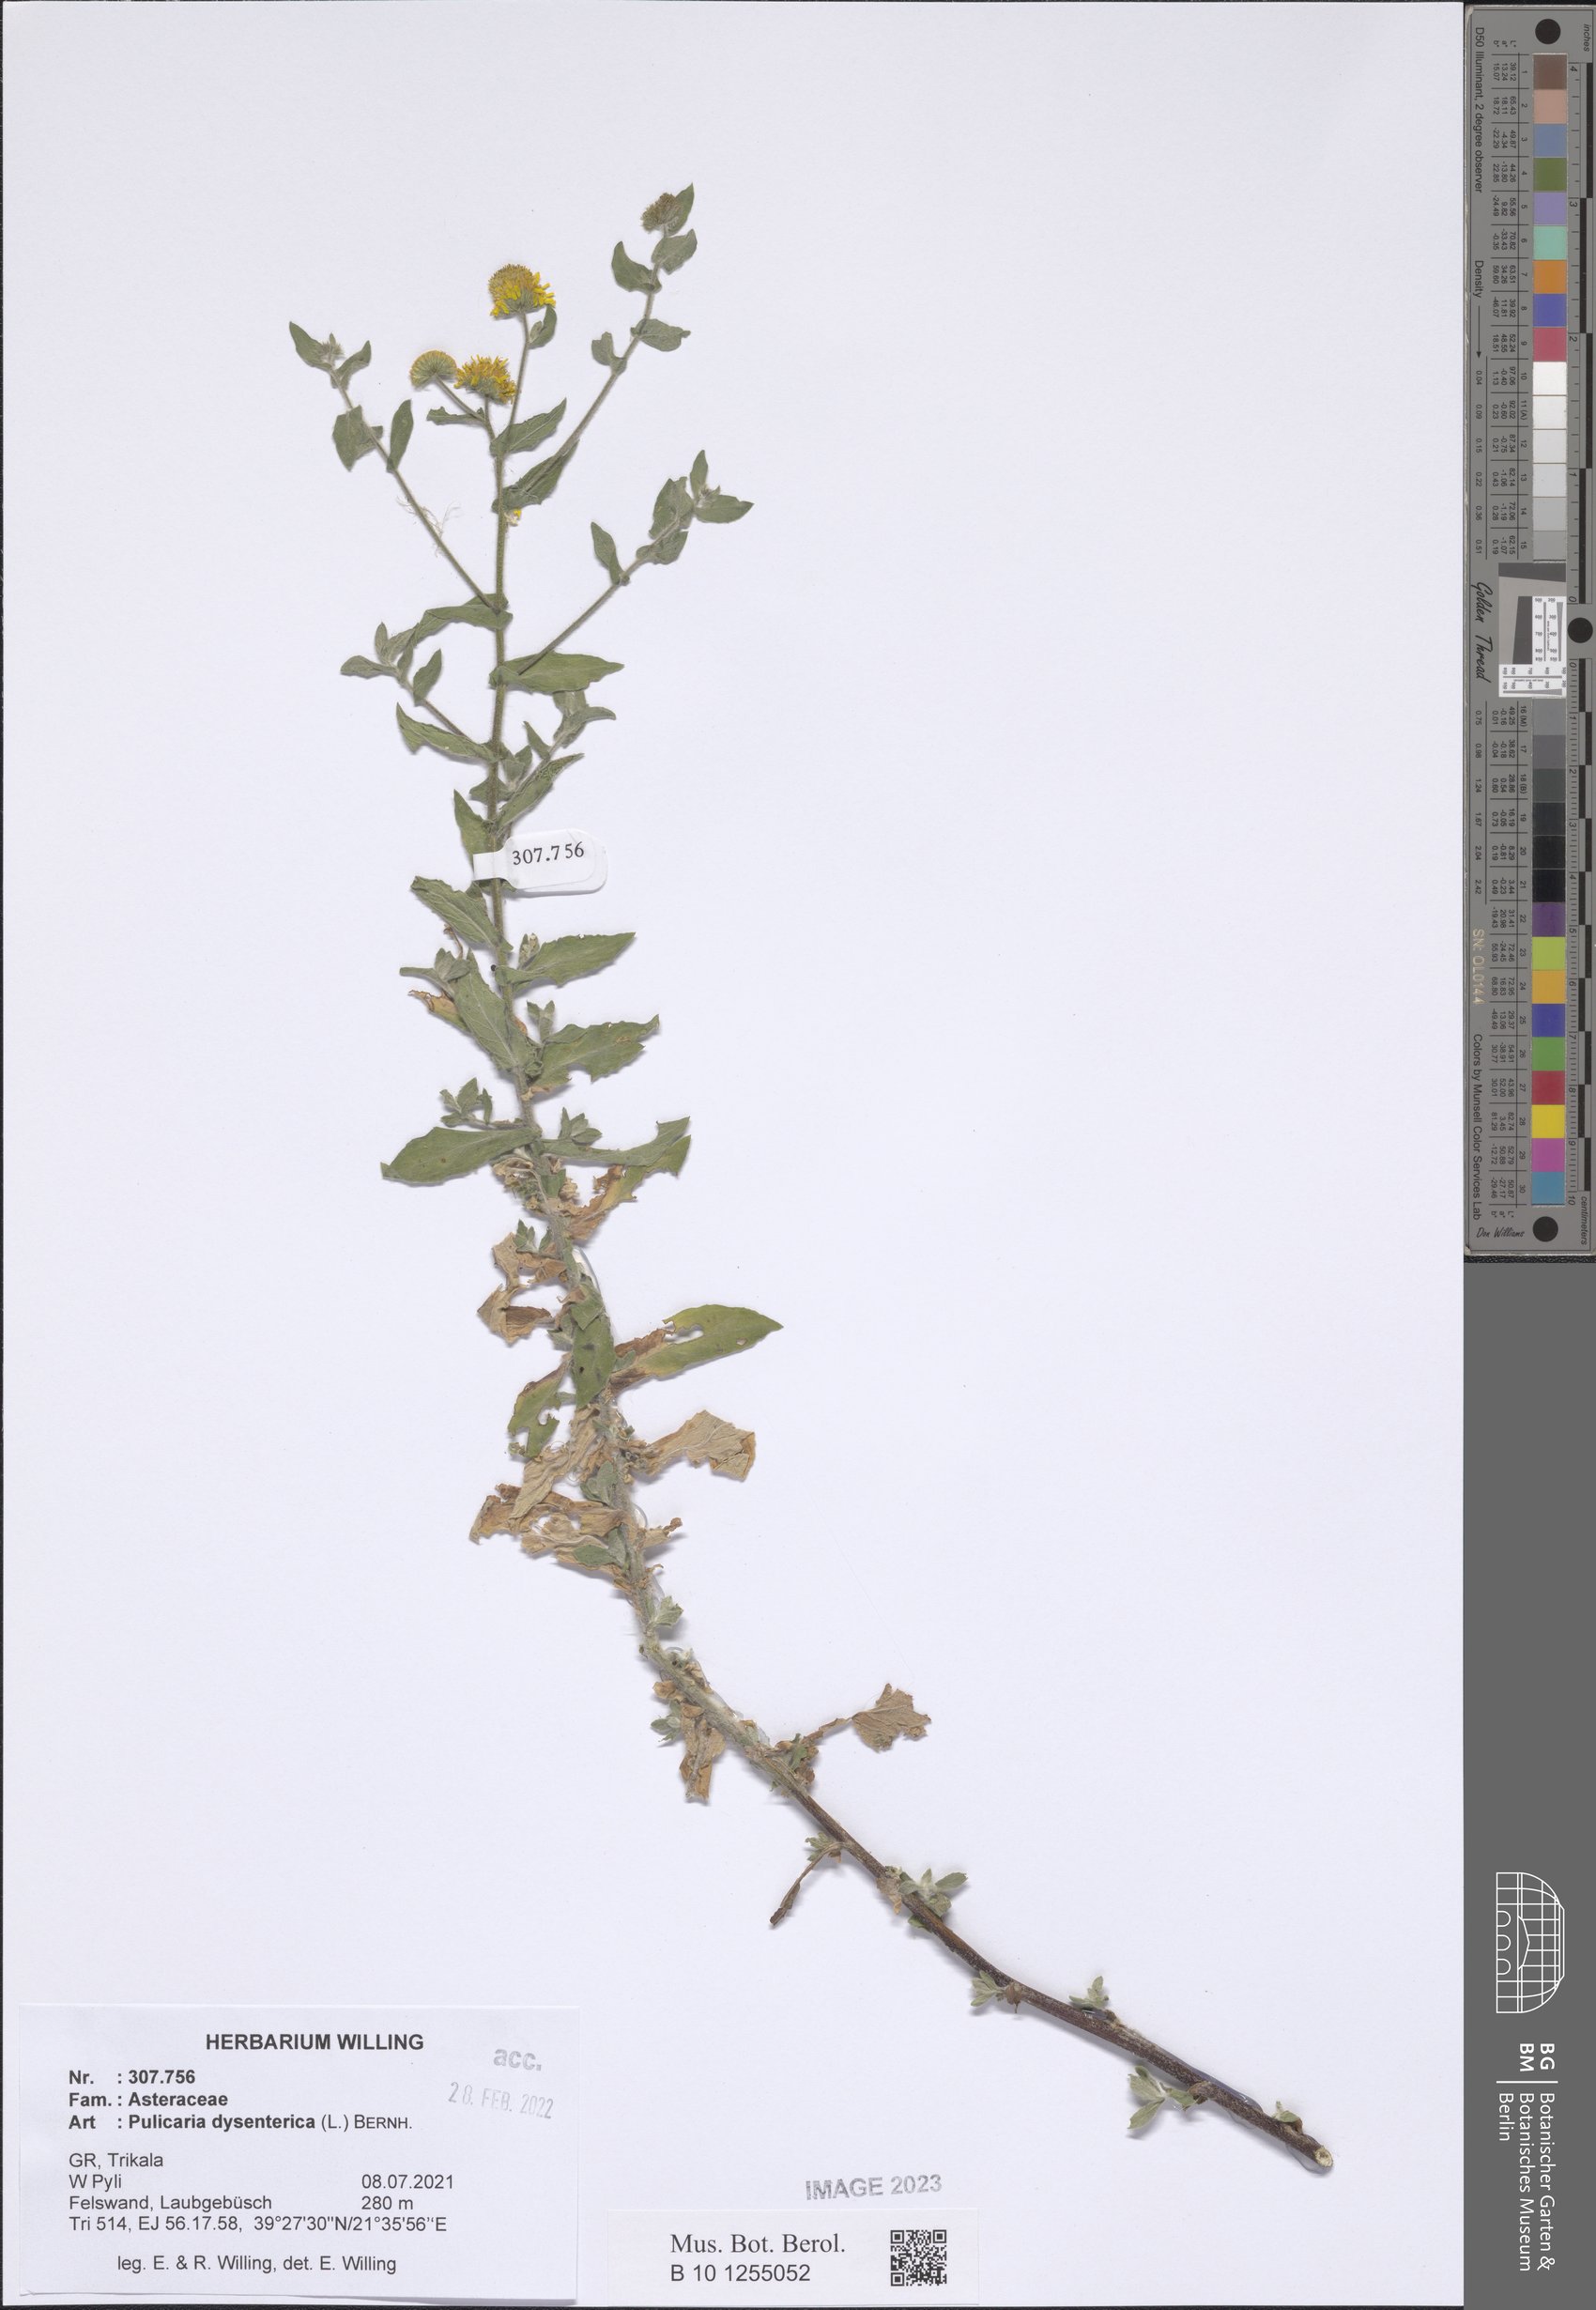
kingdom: Plantae
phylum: Tracheophyta
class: Magnoliopsida
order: Asterales
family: Asteraceae
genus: Pulicaria
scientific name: Pulicaria dysenterica
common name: Common fleabane
